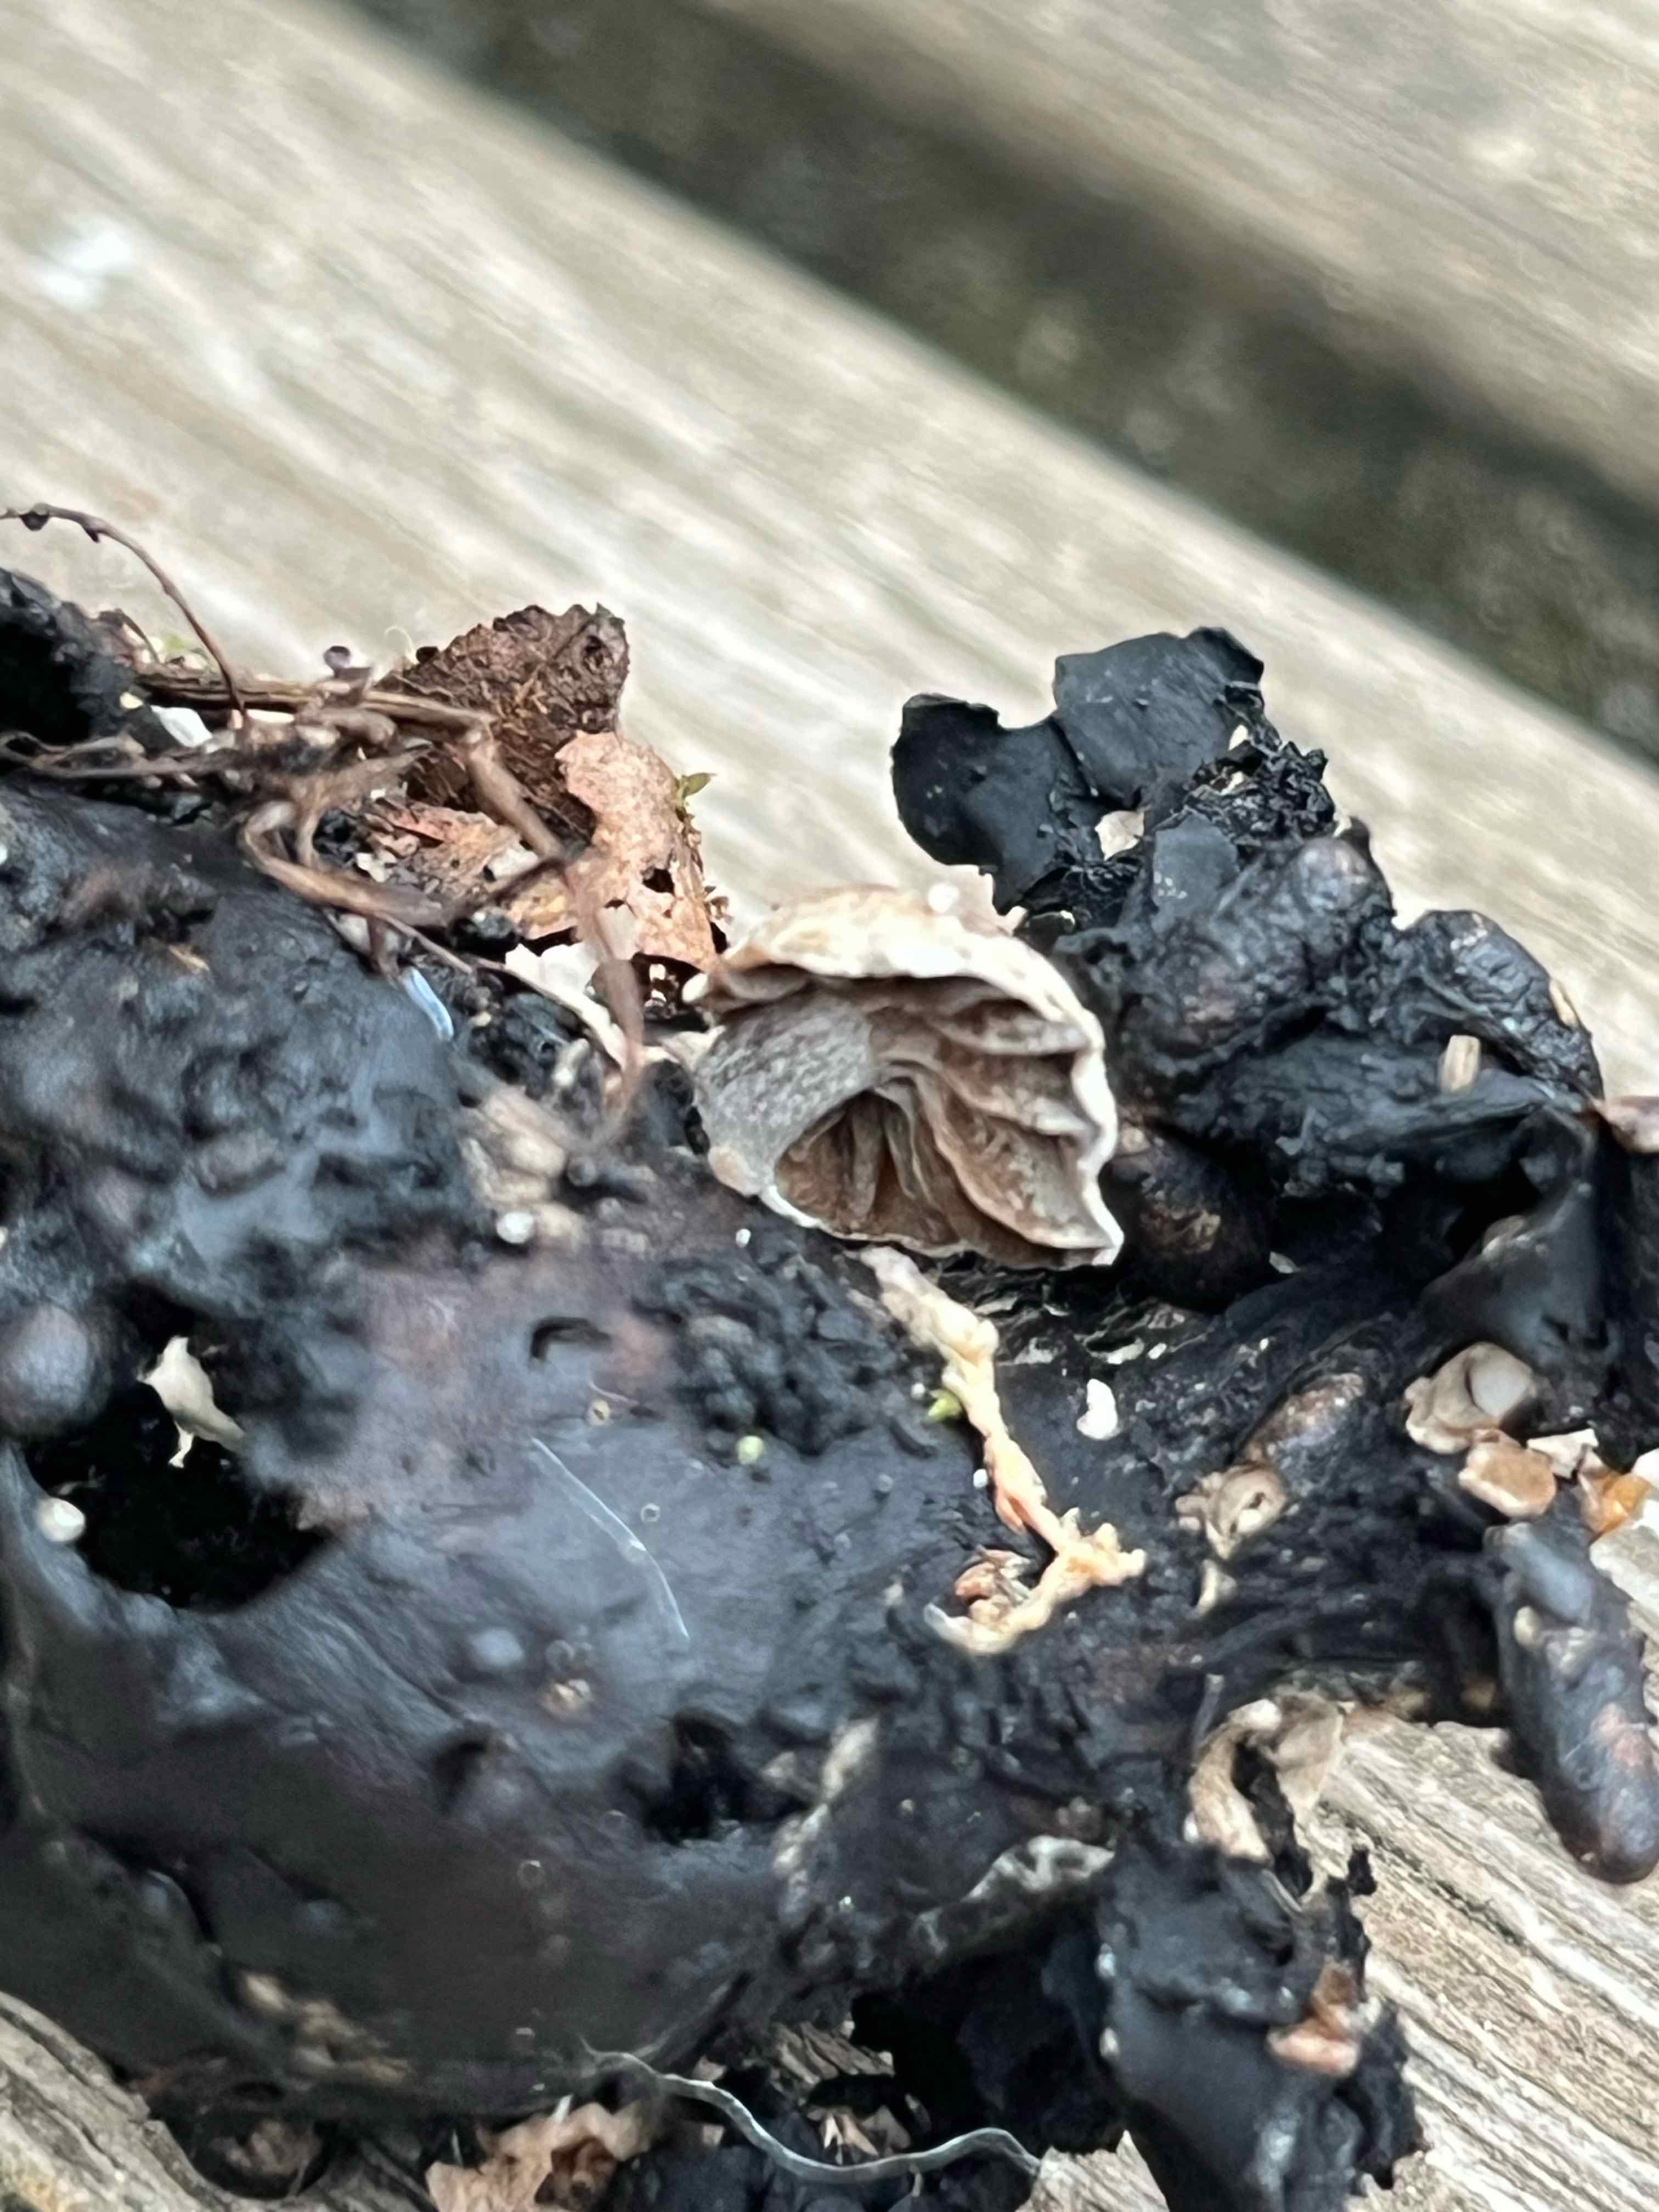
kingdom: Fungi
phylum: Basidiomycota
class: Agaricomycetes
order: Agaricales
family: Lyophyllaceae
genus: Asterophora
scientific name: Asterophora parasitica
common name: grå snyltehat
